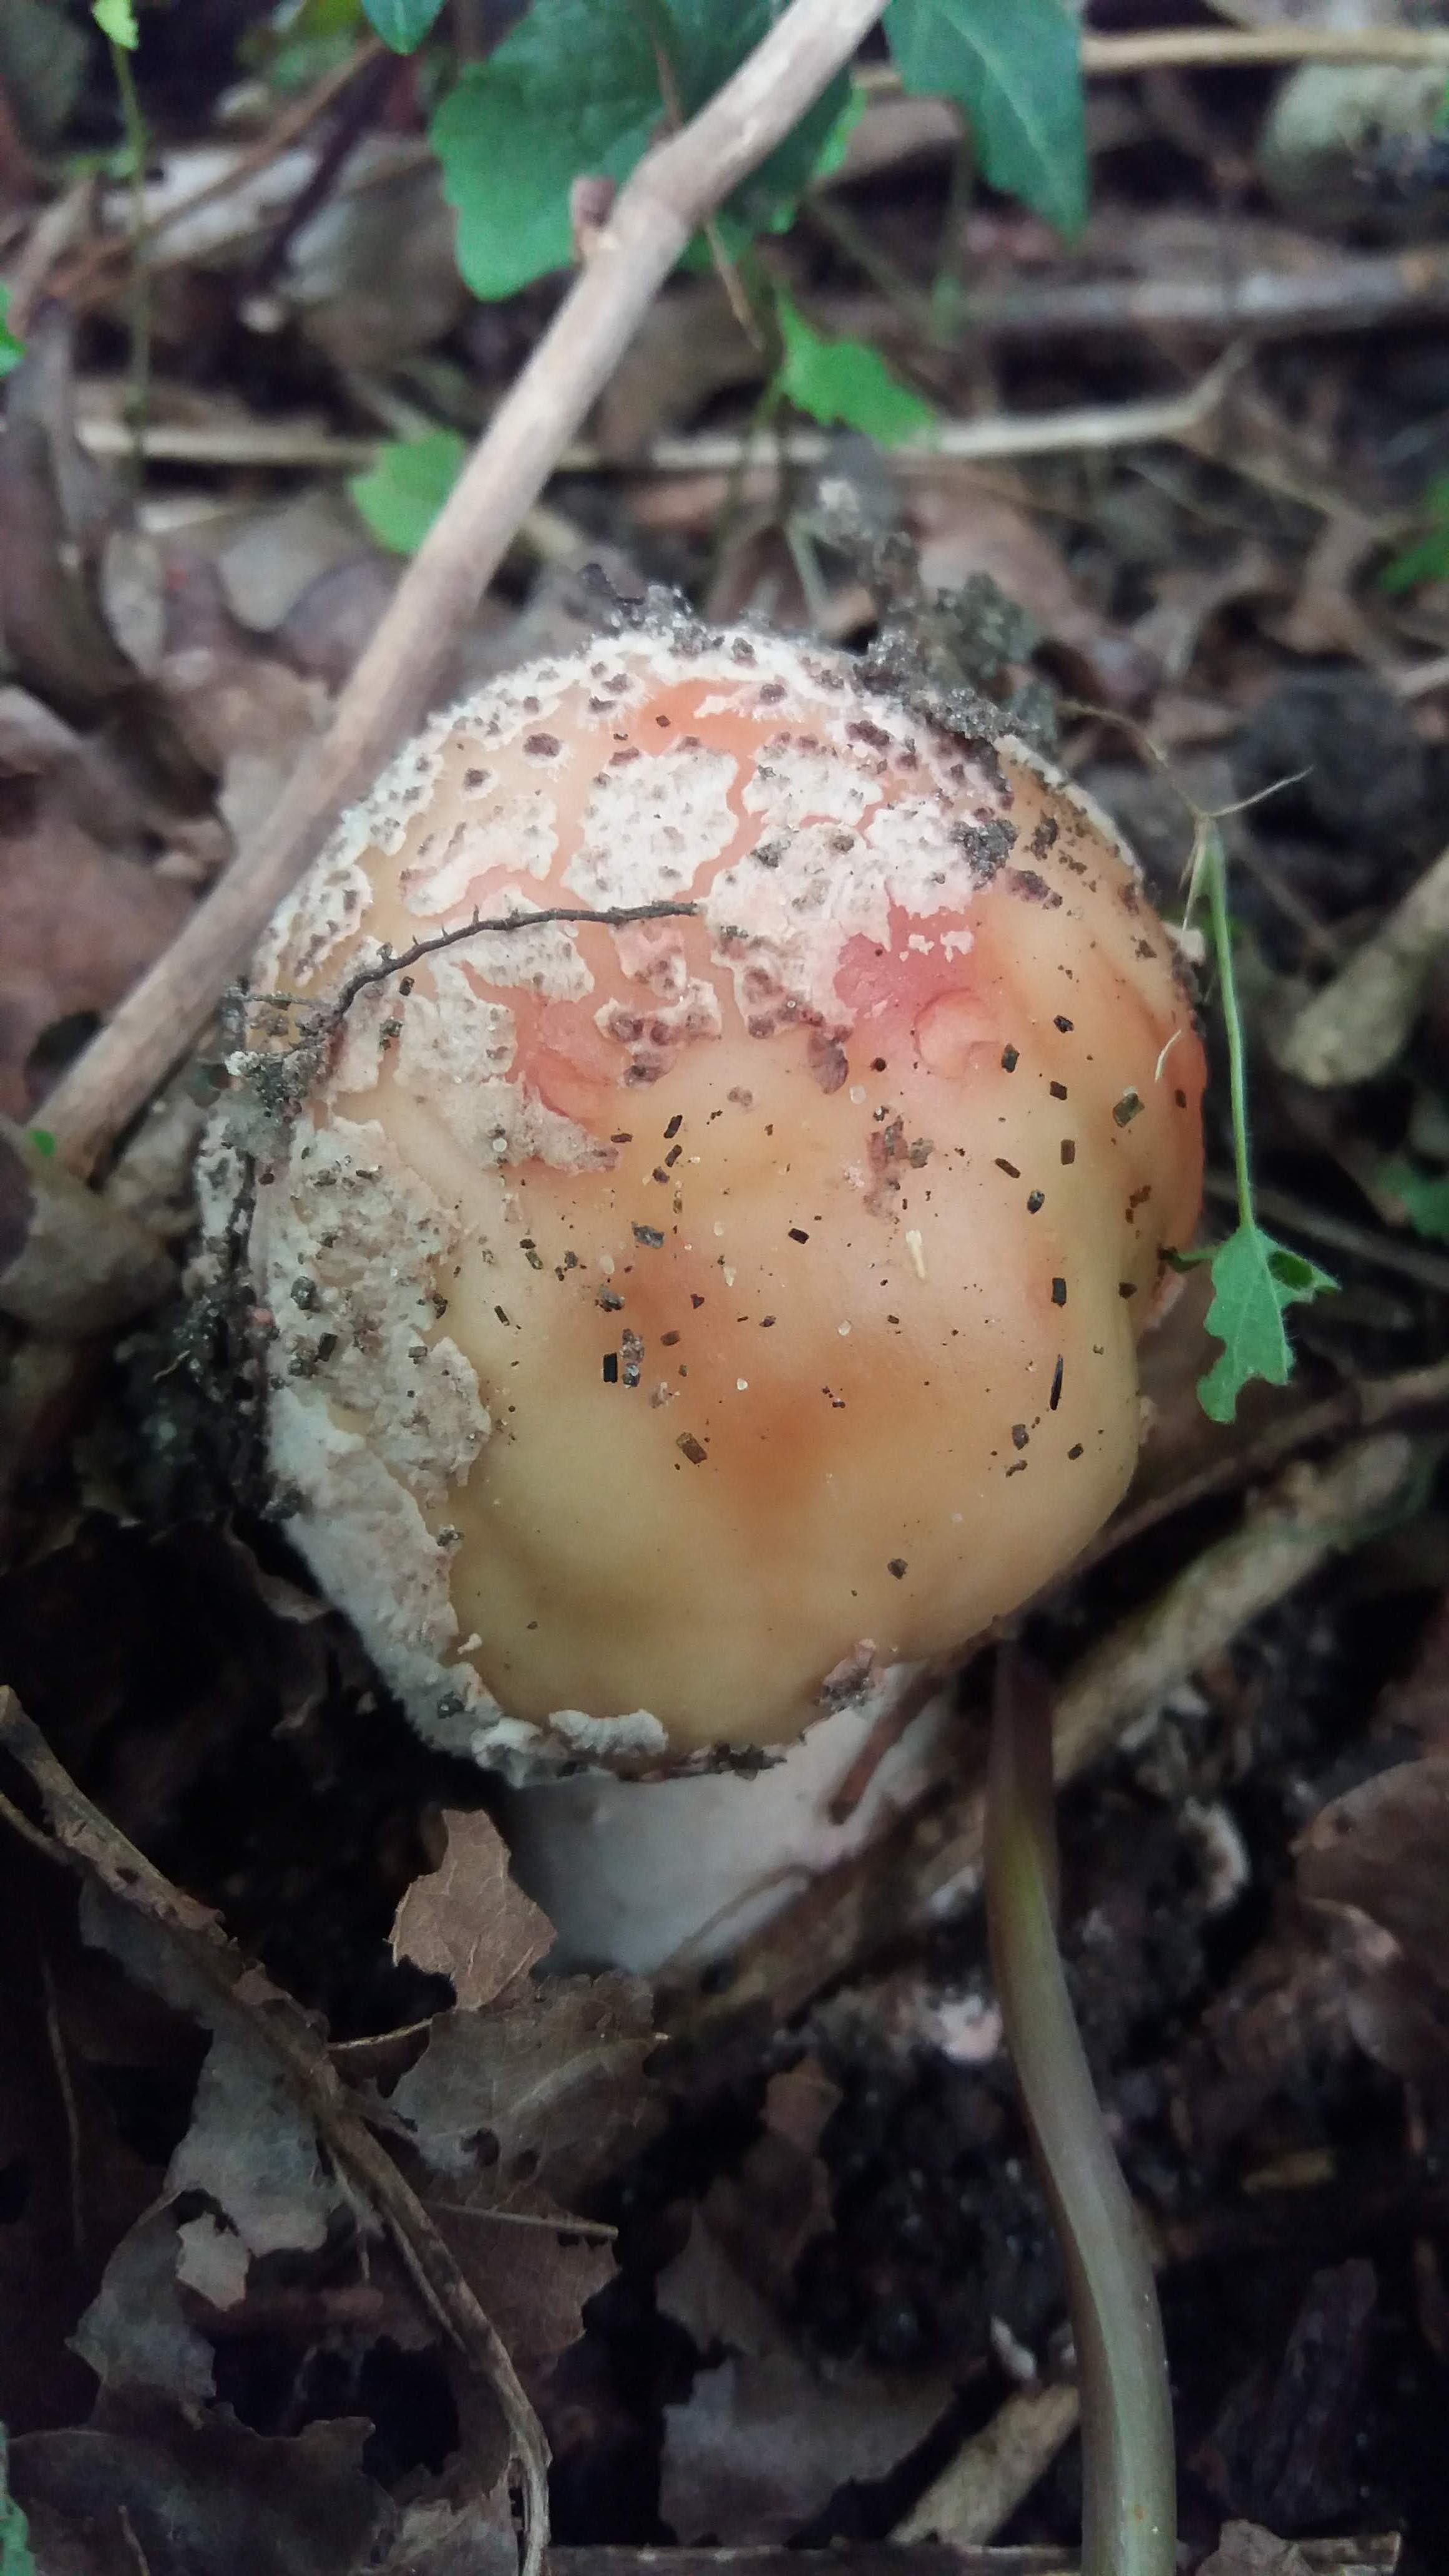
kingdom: Fungi
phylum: Basidiomycota
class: Agaricomycetes
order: Agaricales
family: Amanitaceae
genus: Amanita
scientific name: Amanita rubescens
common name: rødmende fluesvamp
